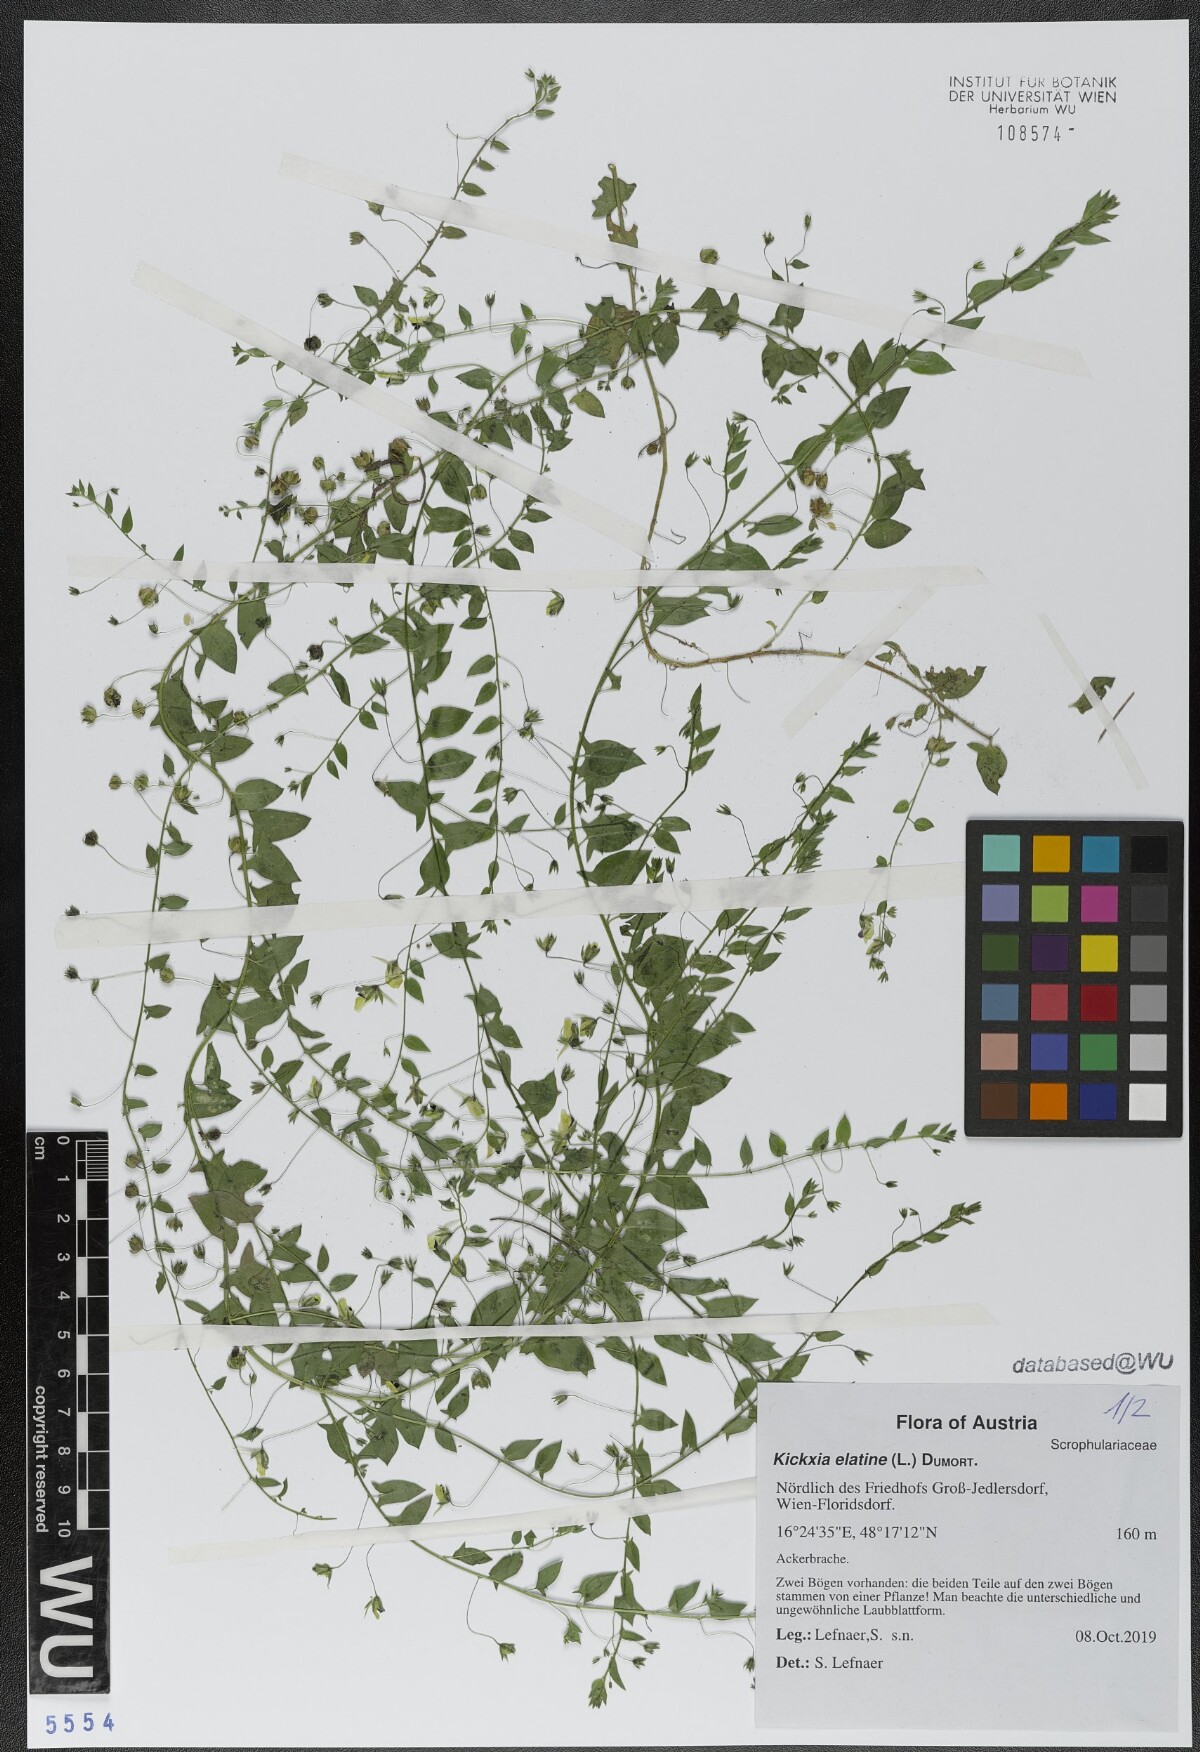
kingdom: Plantae
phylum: Tracheophyta
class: Magnoliopsida
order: Lamiales
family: Plantaginaceae
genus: Kickxia
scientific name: Kickxia elatine
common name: Sharp-leaved fluellen
